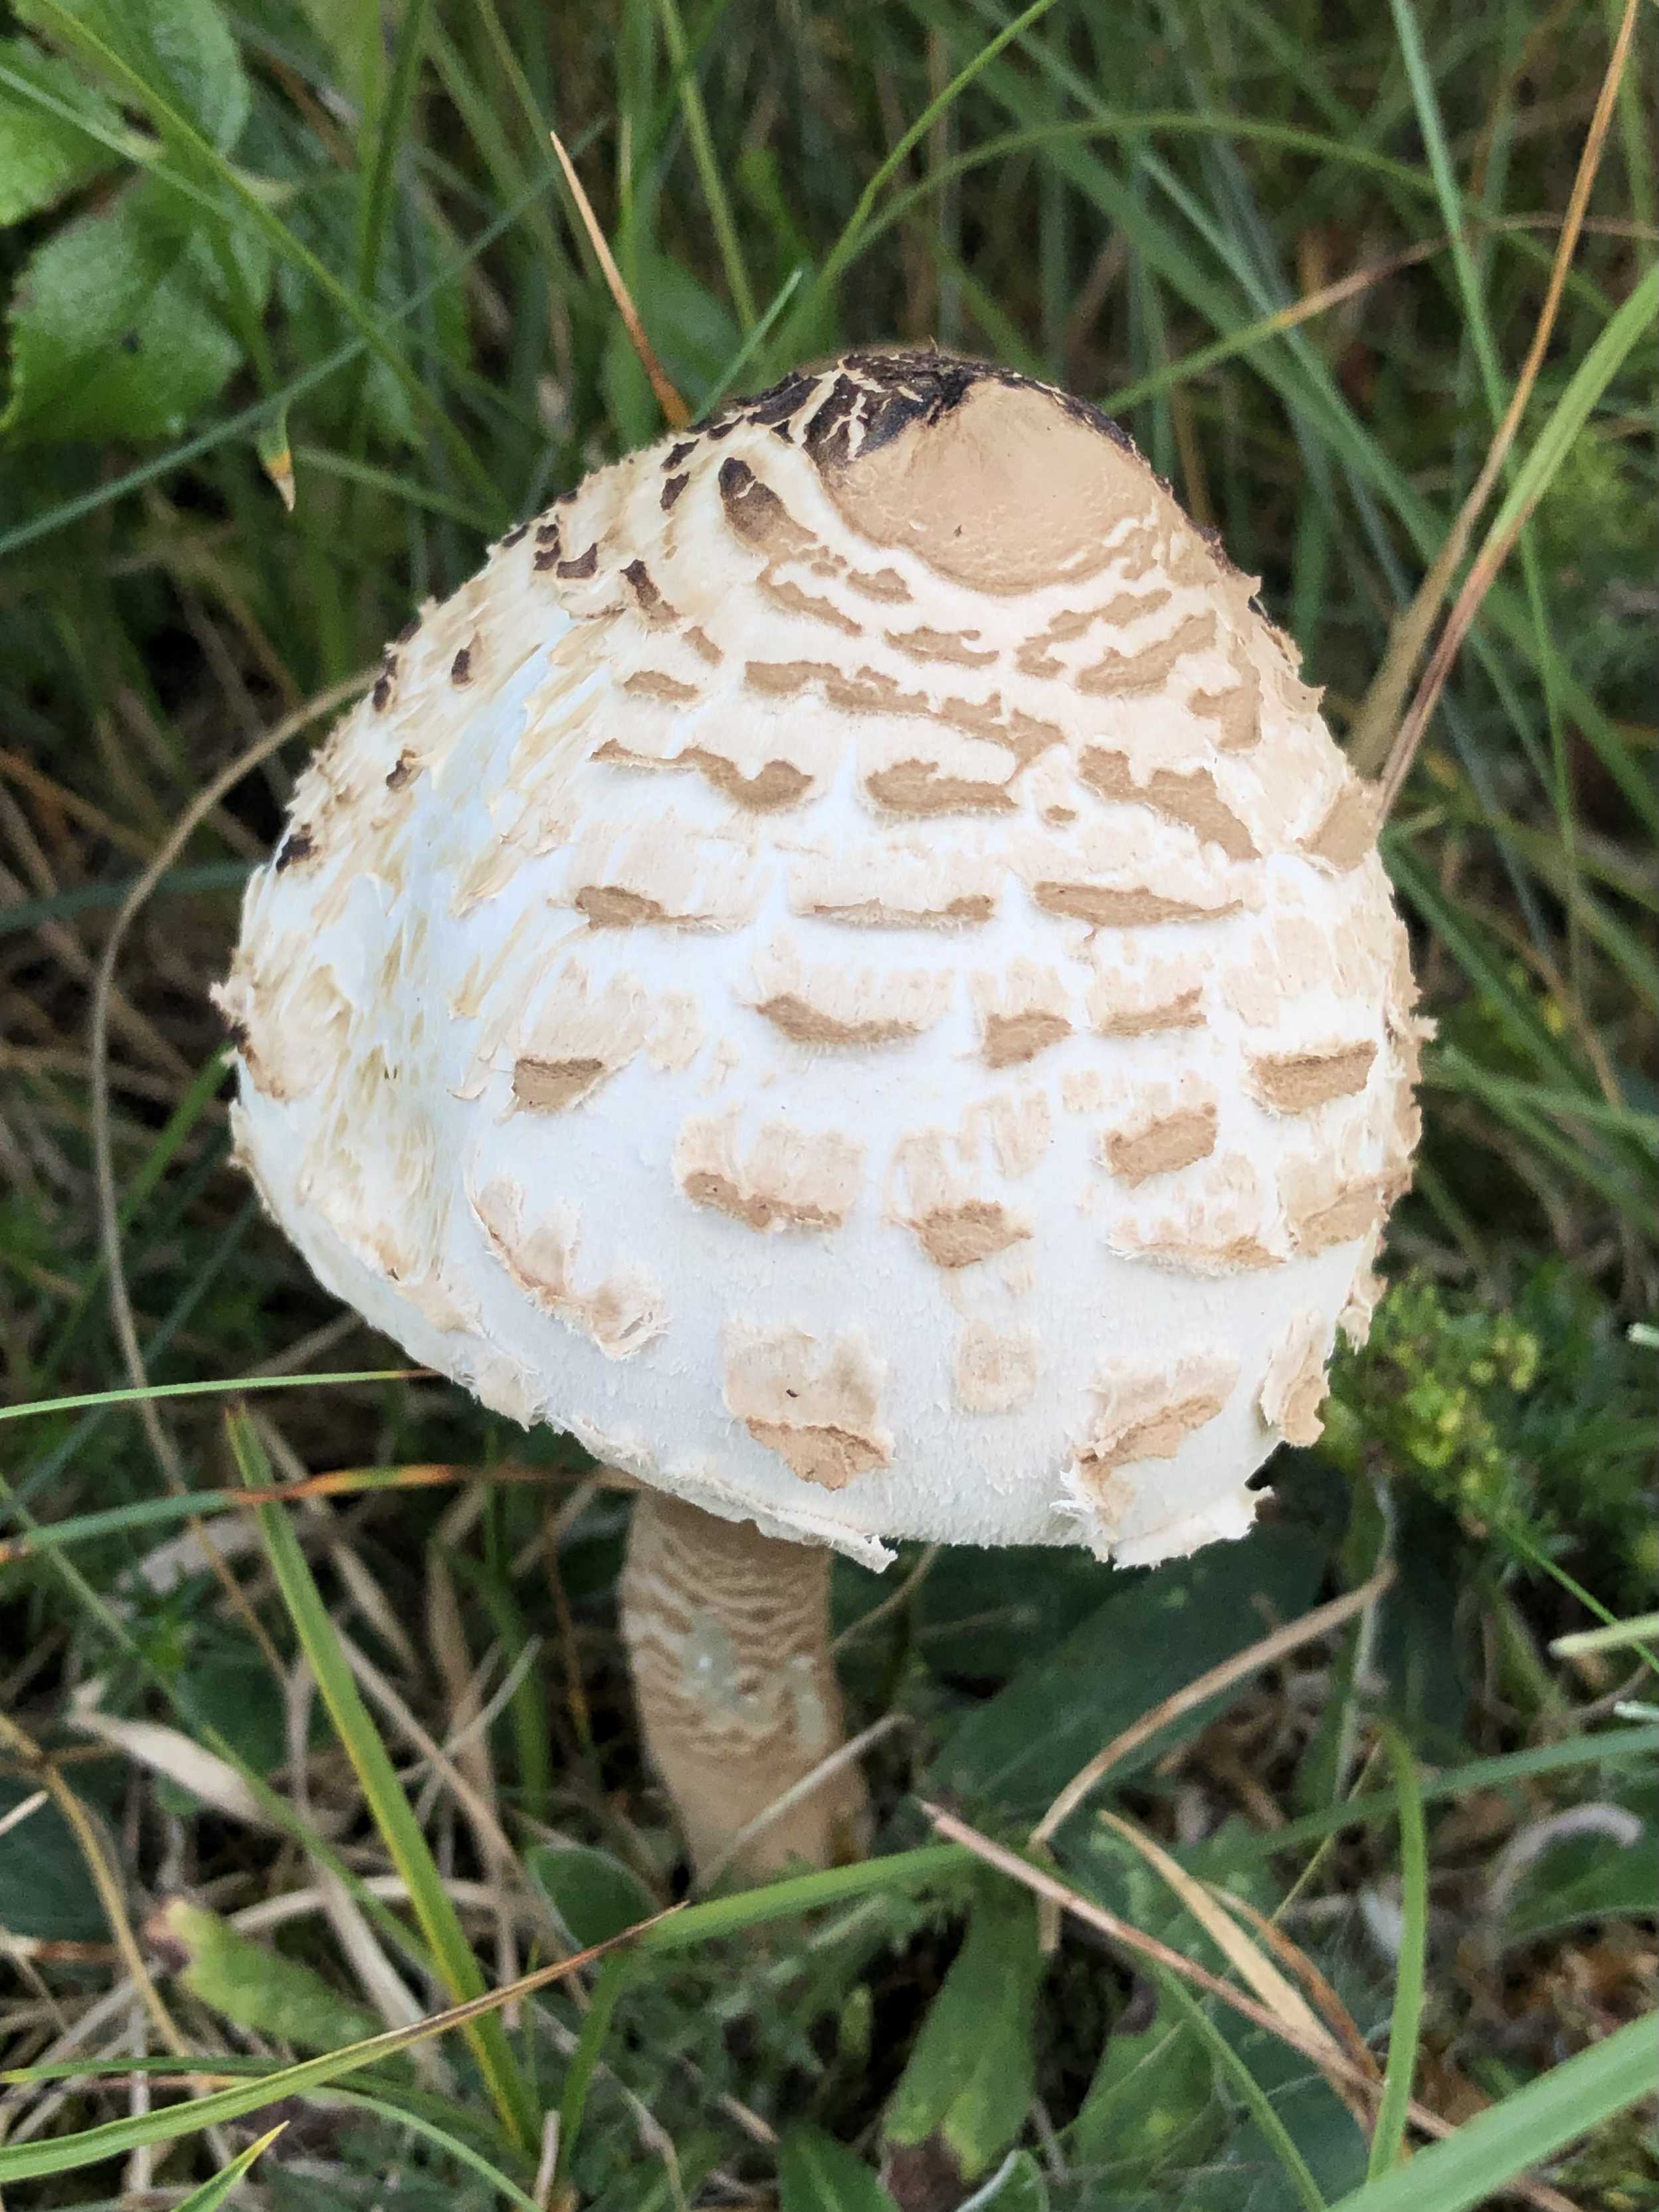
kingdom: Fungi
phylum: Basidiomycota
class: Agaricomycetes
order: Agaricales
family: Agaricaceae
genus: Macrolepiota
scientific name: Macrolepiota procera
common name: stor kæmpeparasolhat
